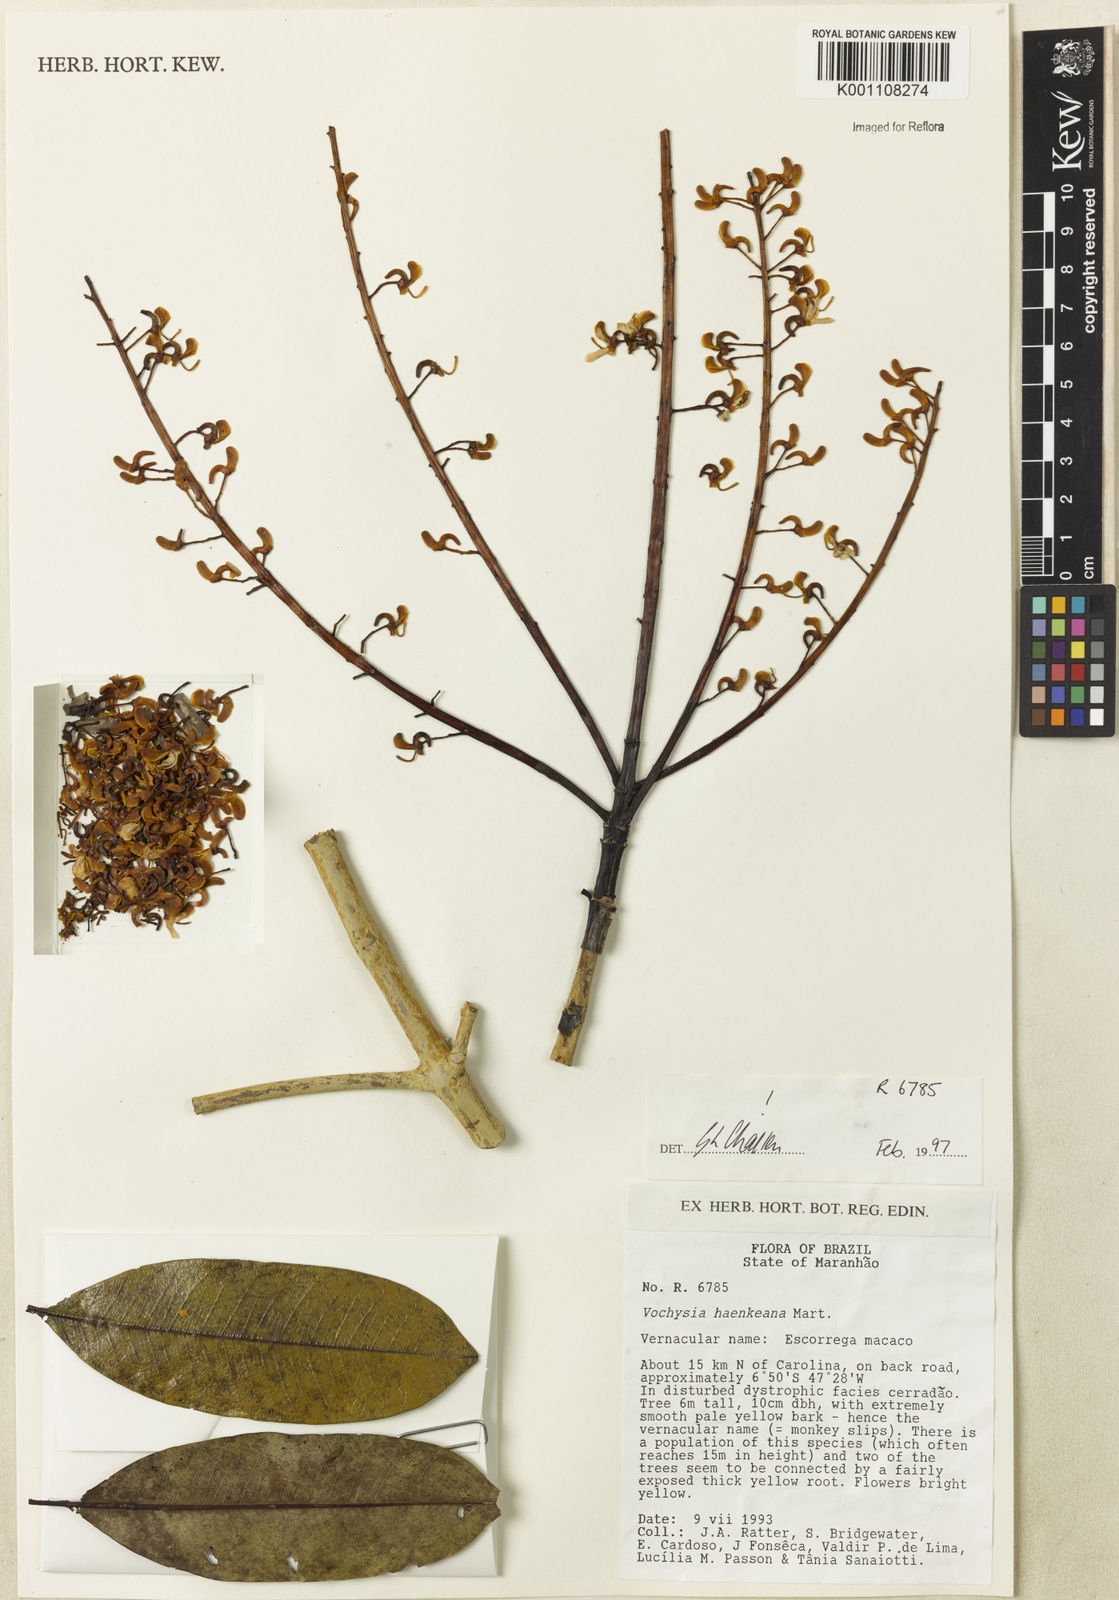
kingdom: Plantae
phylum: Tracheophyta
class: Magnoliopsida
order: Myrtales
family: Vochysiaceae
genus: Vochysia
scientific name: Vochysia haenkeana
